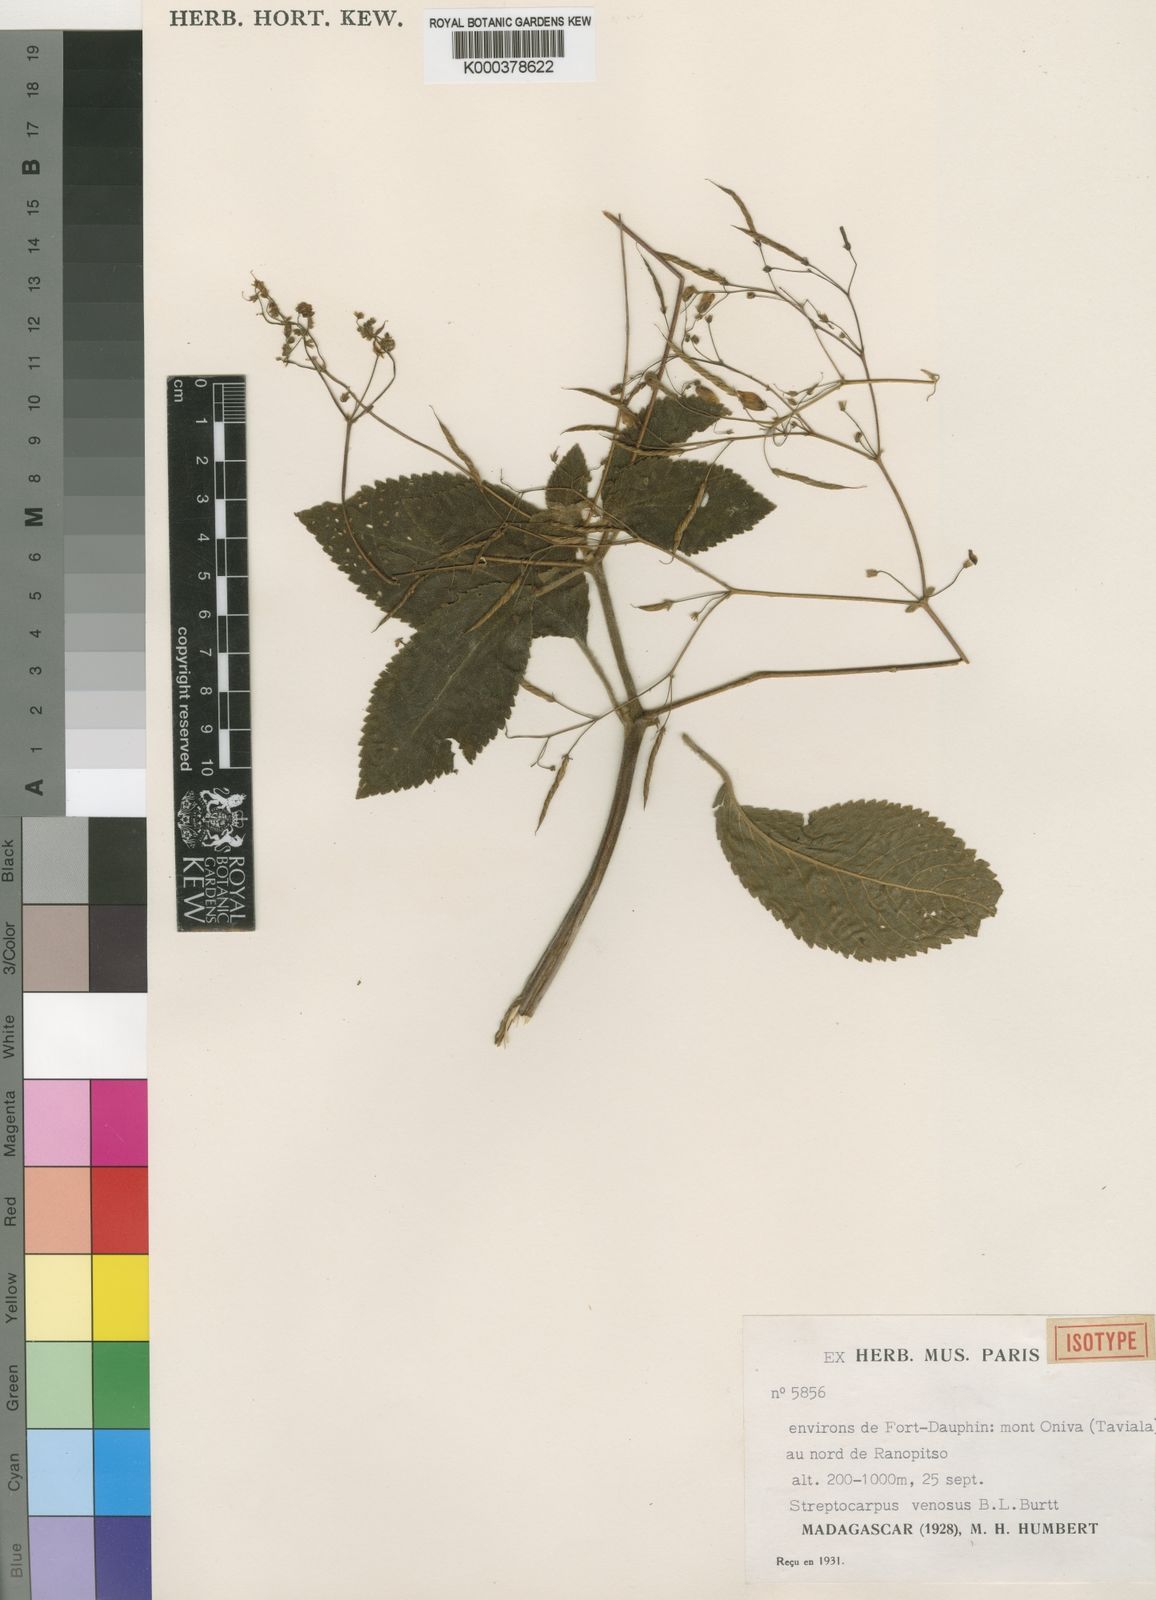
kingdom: Plantae
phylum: Tracheophyta
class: Magnoliopsida
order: Lamiales
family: Gesneriaceae
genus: Streptocarpus
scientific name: Streptocarpus venosus
